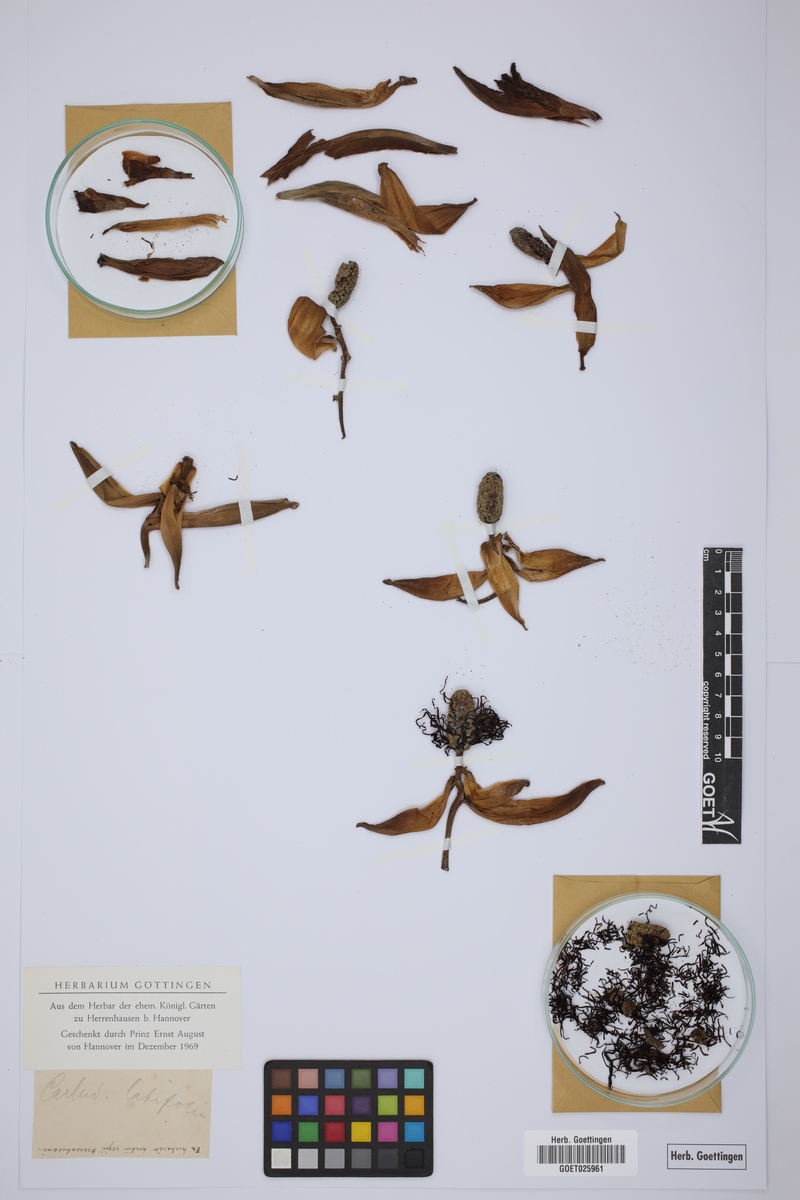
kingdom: Plantae
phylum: Tracheophyta
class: Liliopsida
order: Pandanales
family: Cyclanthaceae
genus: Asplundia
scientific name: Asplundia latifolia
